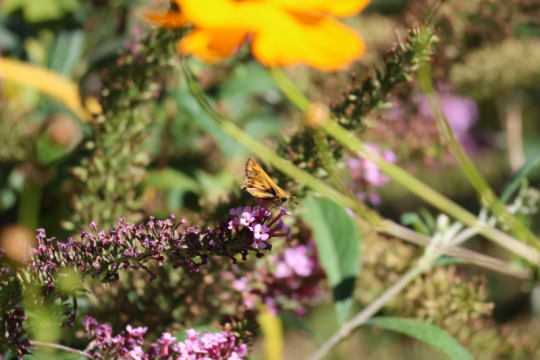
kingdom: Animalia
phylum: Arthropoda
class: Insecta
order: Lepidoptera
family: Hesperiidae
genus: Hylephila
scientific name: Hylephila phyleus
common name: Fiery Skipper
